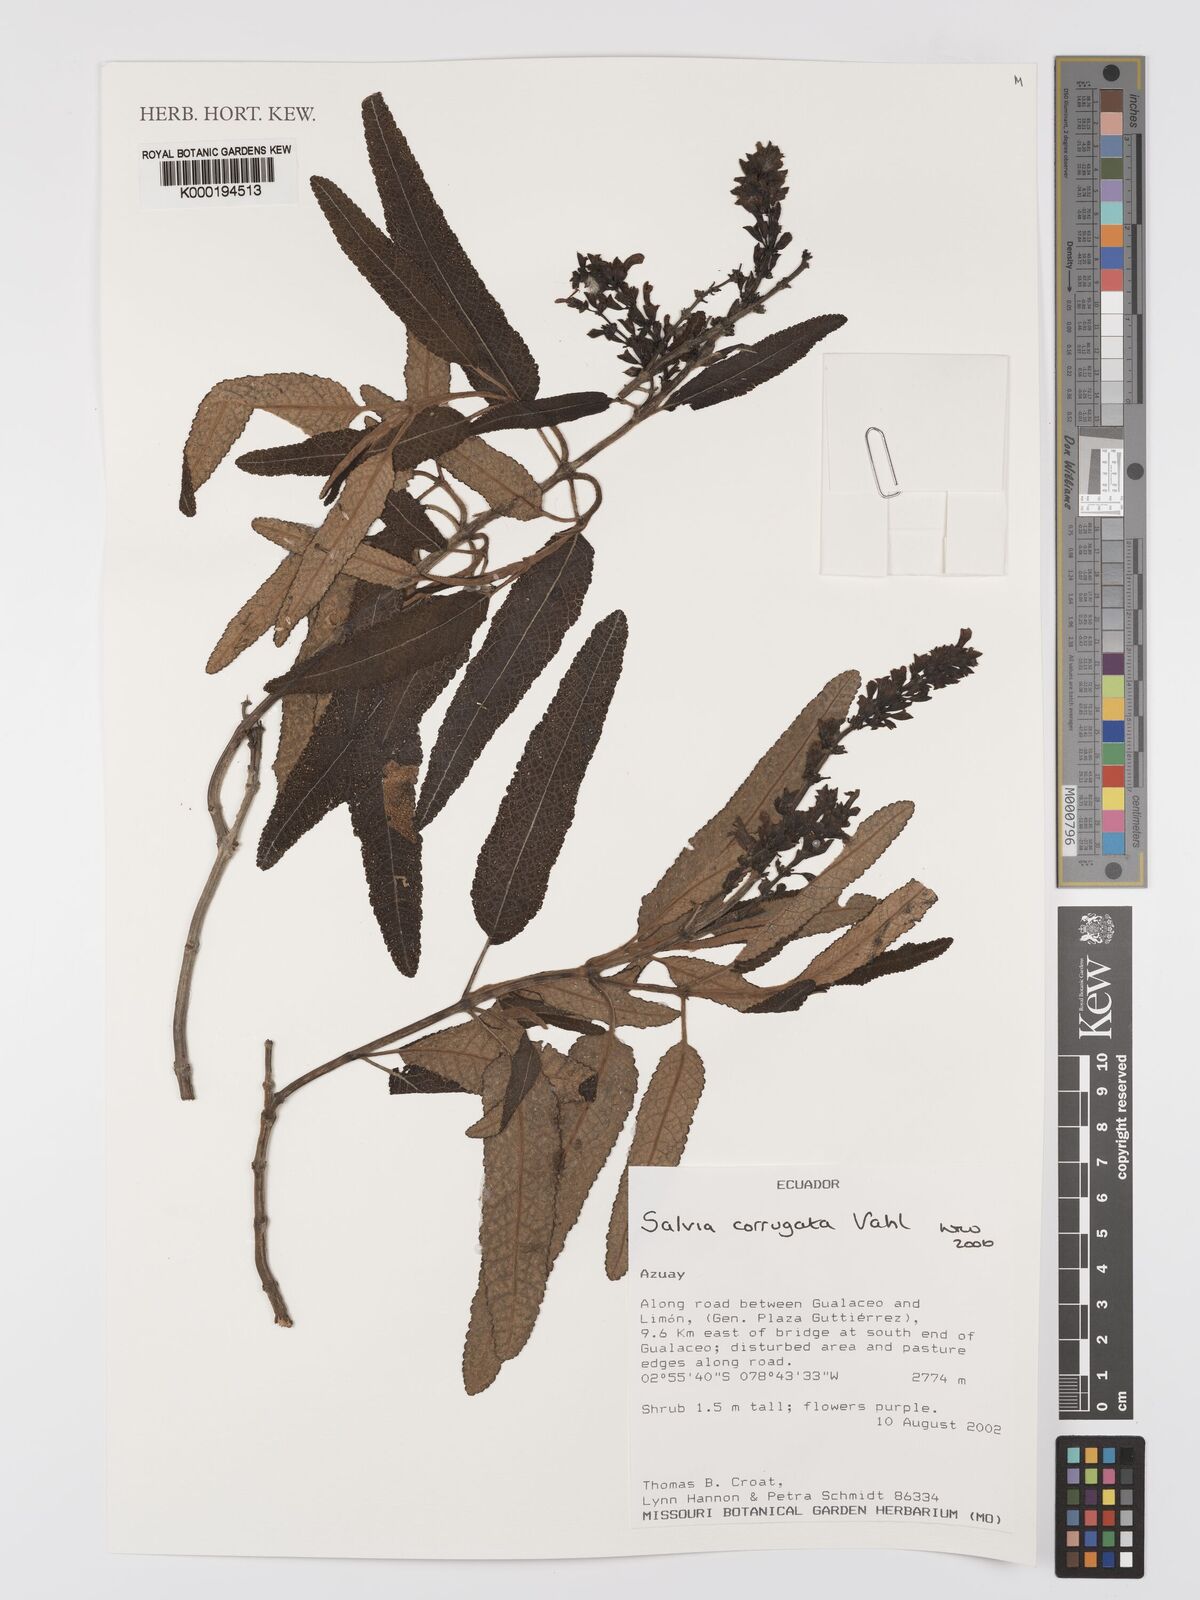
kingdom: Plantae
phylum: Tracheophyta
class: Magnoliopsida
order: Lamiales
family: Lamiaceae
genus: Salvia
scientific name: Salvia corrugata
